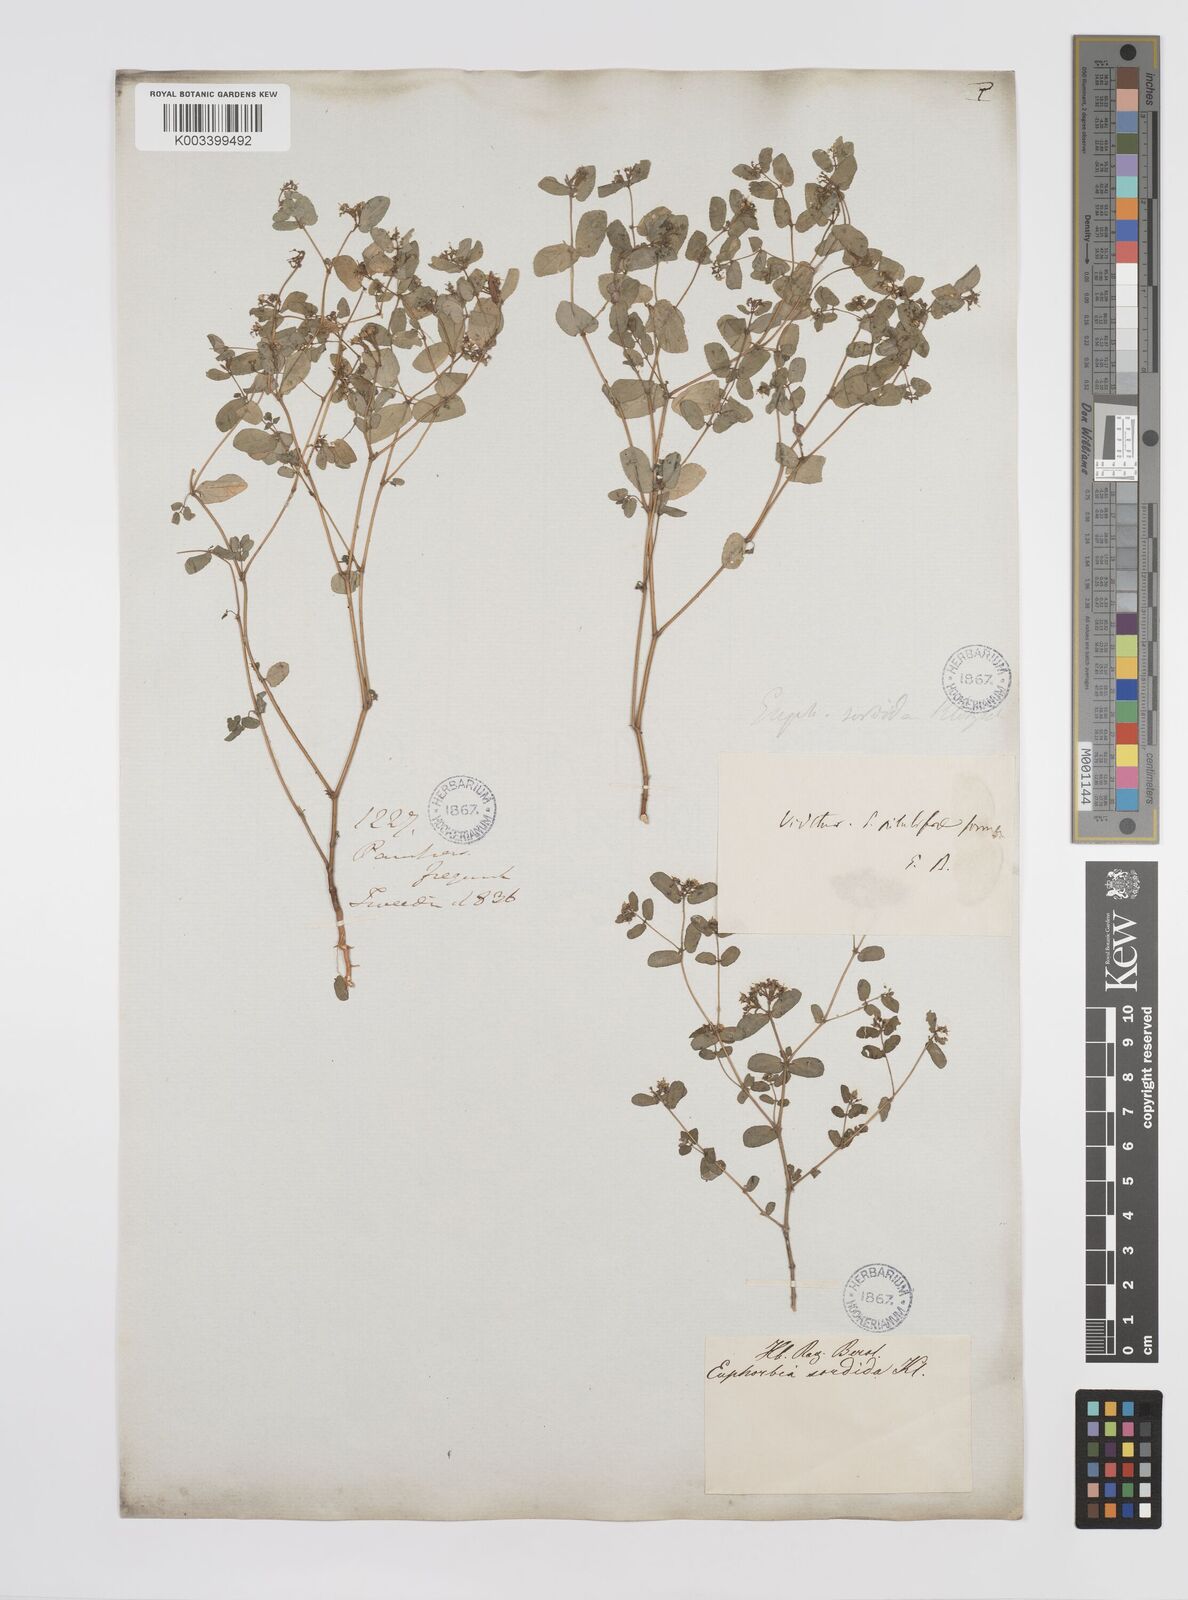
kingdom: Plantae
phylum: Tracheophyta
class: Magnoliopsida
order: Malpighiales
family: Euphorbiaceae
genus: Euphorbia
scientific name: Euphorbia hirta
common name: Pillpod sandmat
